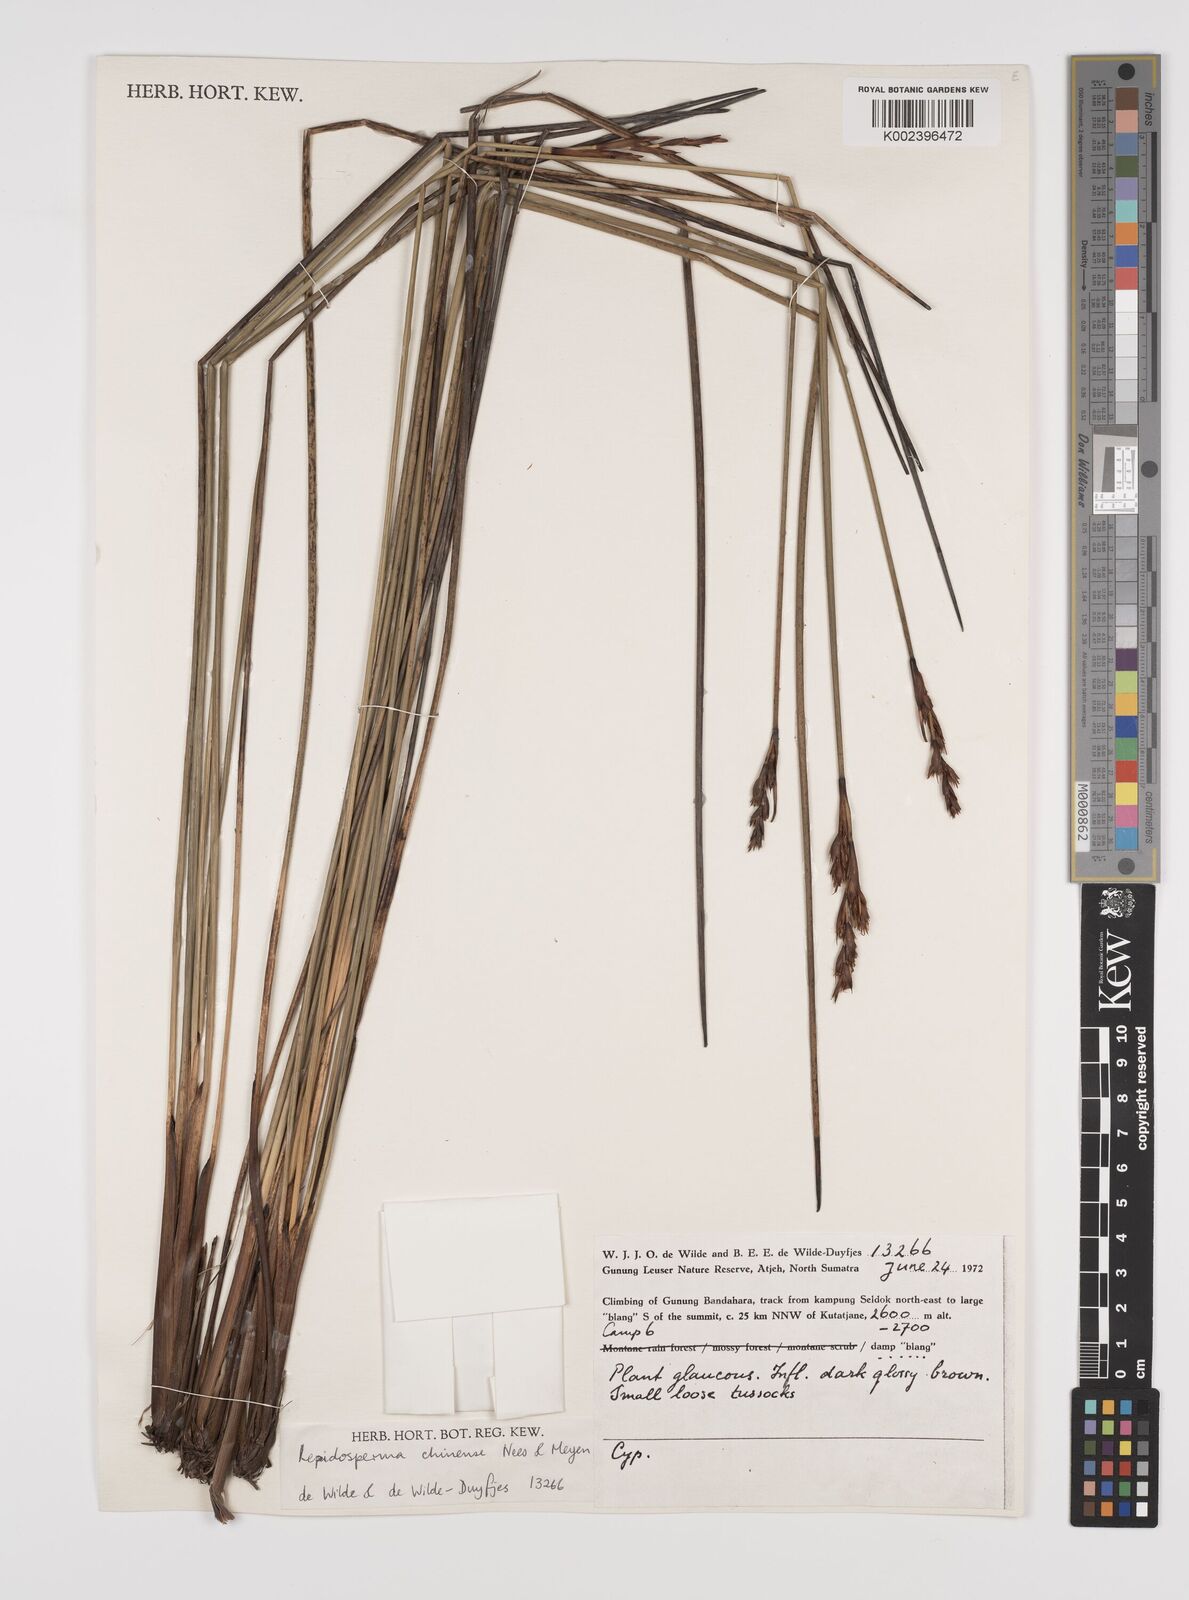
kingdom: Plantae
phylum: Tracheophyta
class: Liliopsida
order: Poales
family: Cyperaceae
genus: Lepidosperma
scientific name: Lepidosperma chinense
